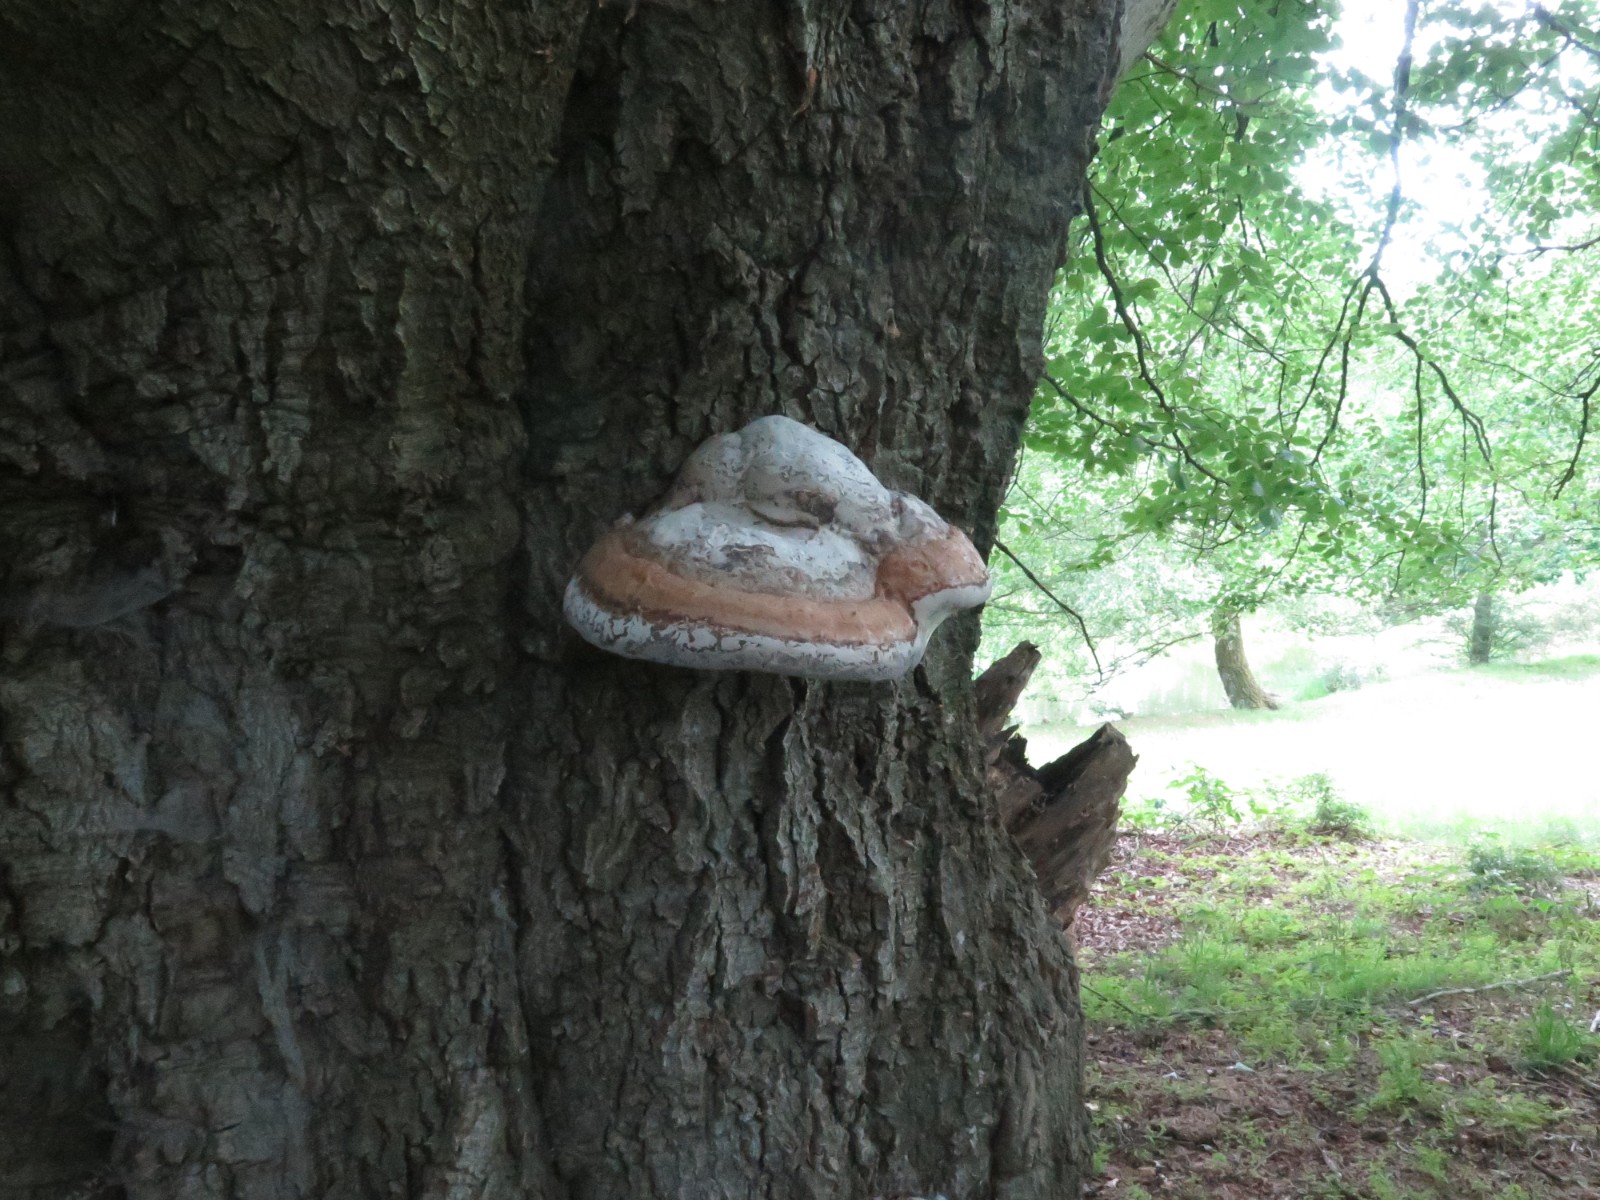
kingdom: Fungi
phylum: Basidiomycota
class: Agaricomycetes
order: Polyporales
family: Polyporaceae
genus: Fomes
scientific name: Fomes fomentarius
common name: tøndersvamp
